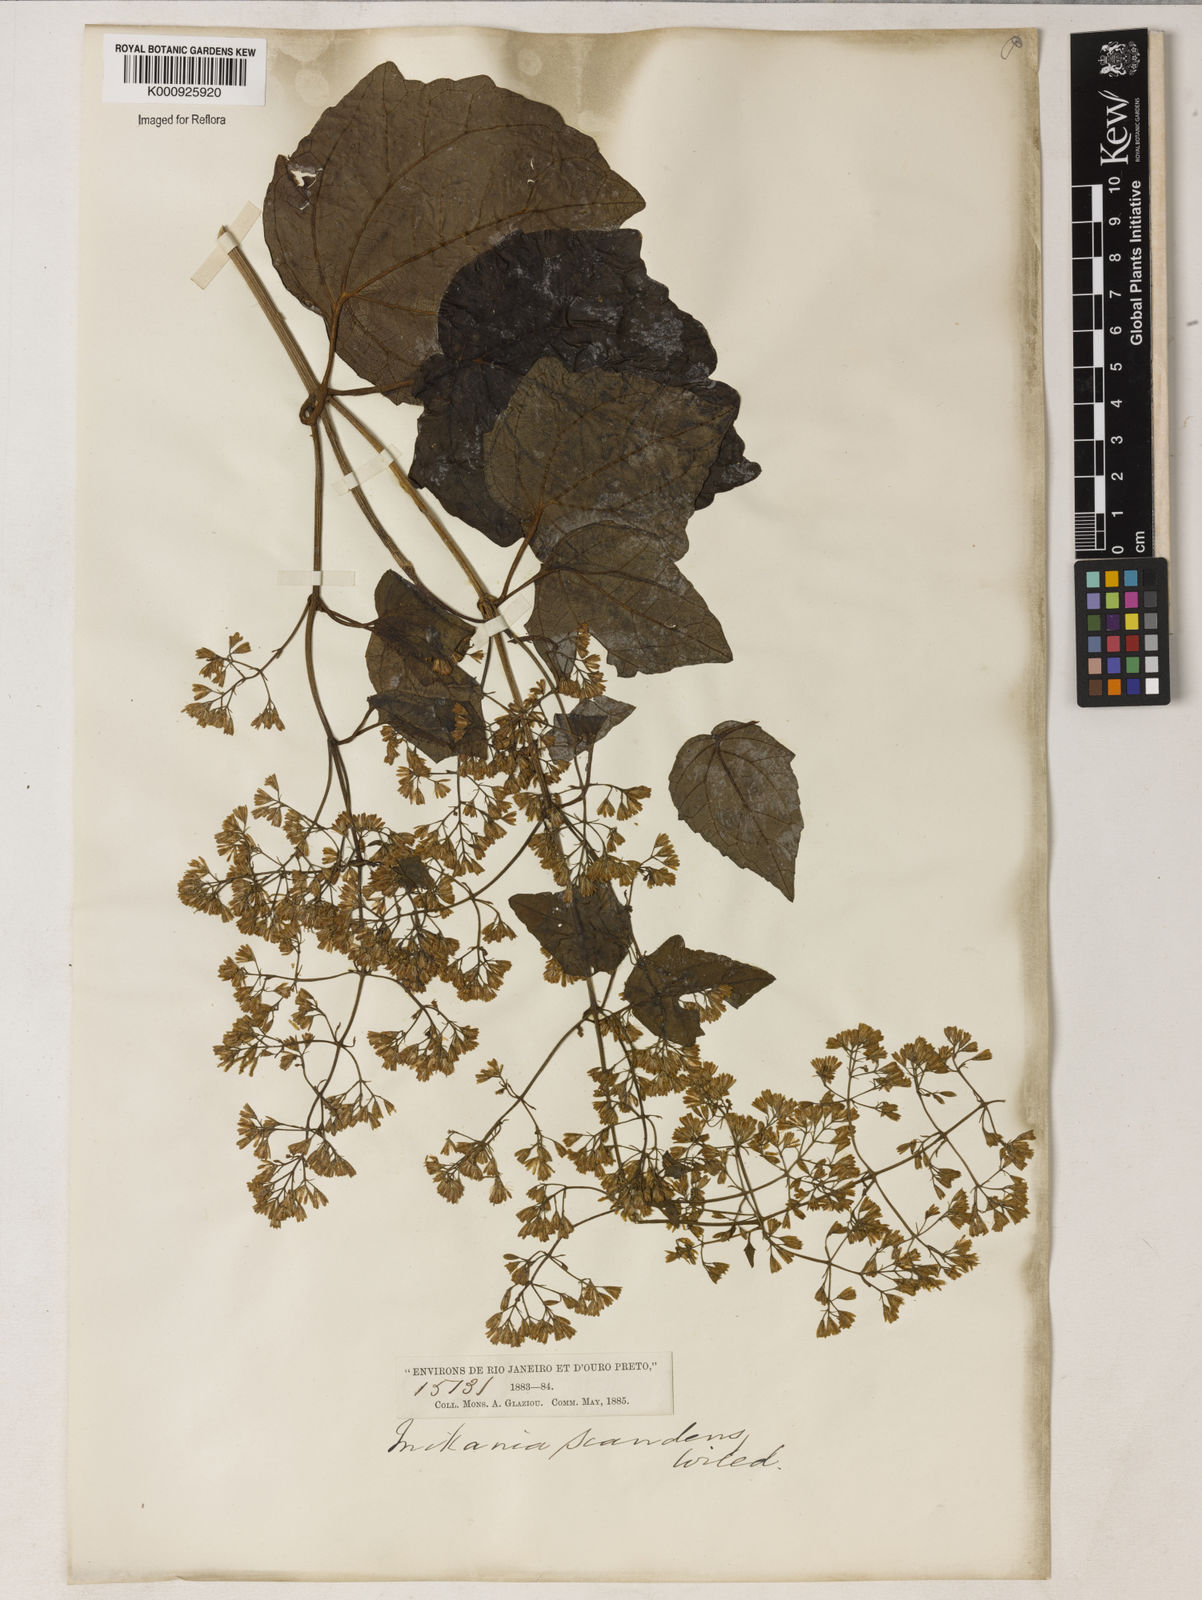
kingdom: Plantae
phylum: Tracheophyta
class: Magnoliopsida
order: Asterales
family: Asteraceae
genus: Mikania
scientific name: Mikania micrantha
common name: Mile-a-minute
